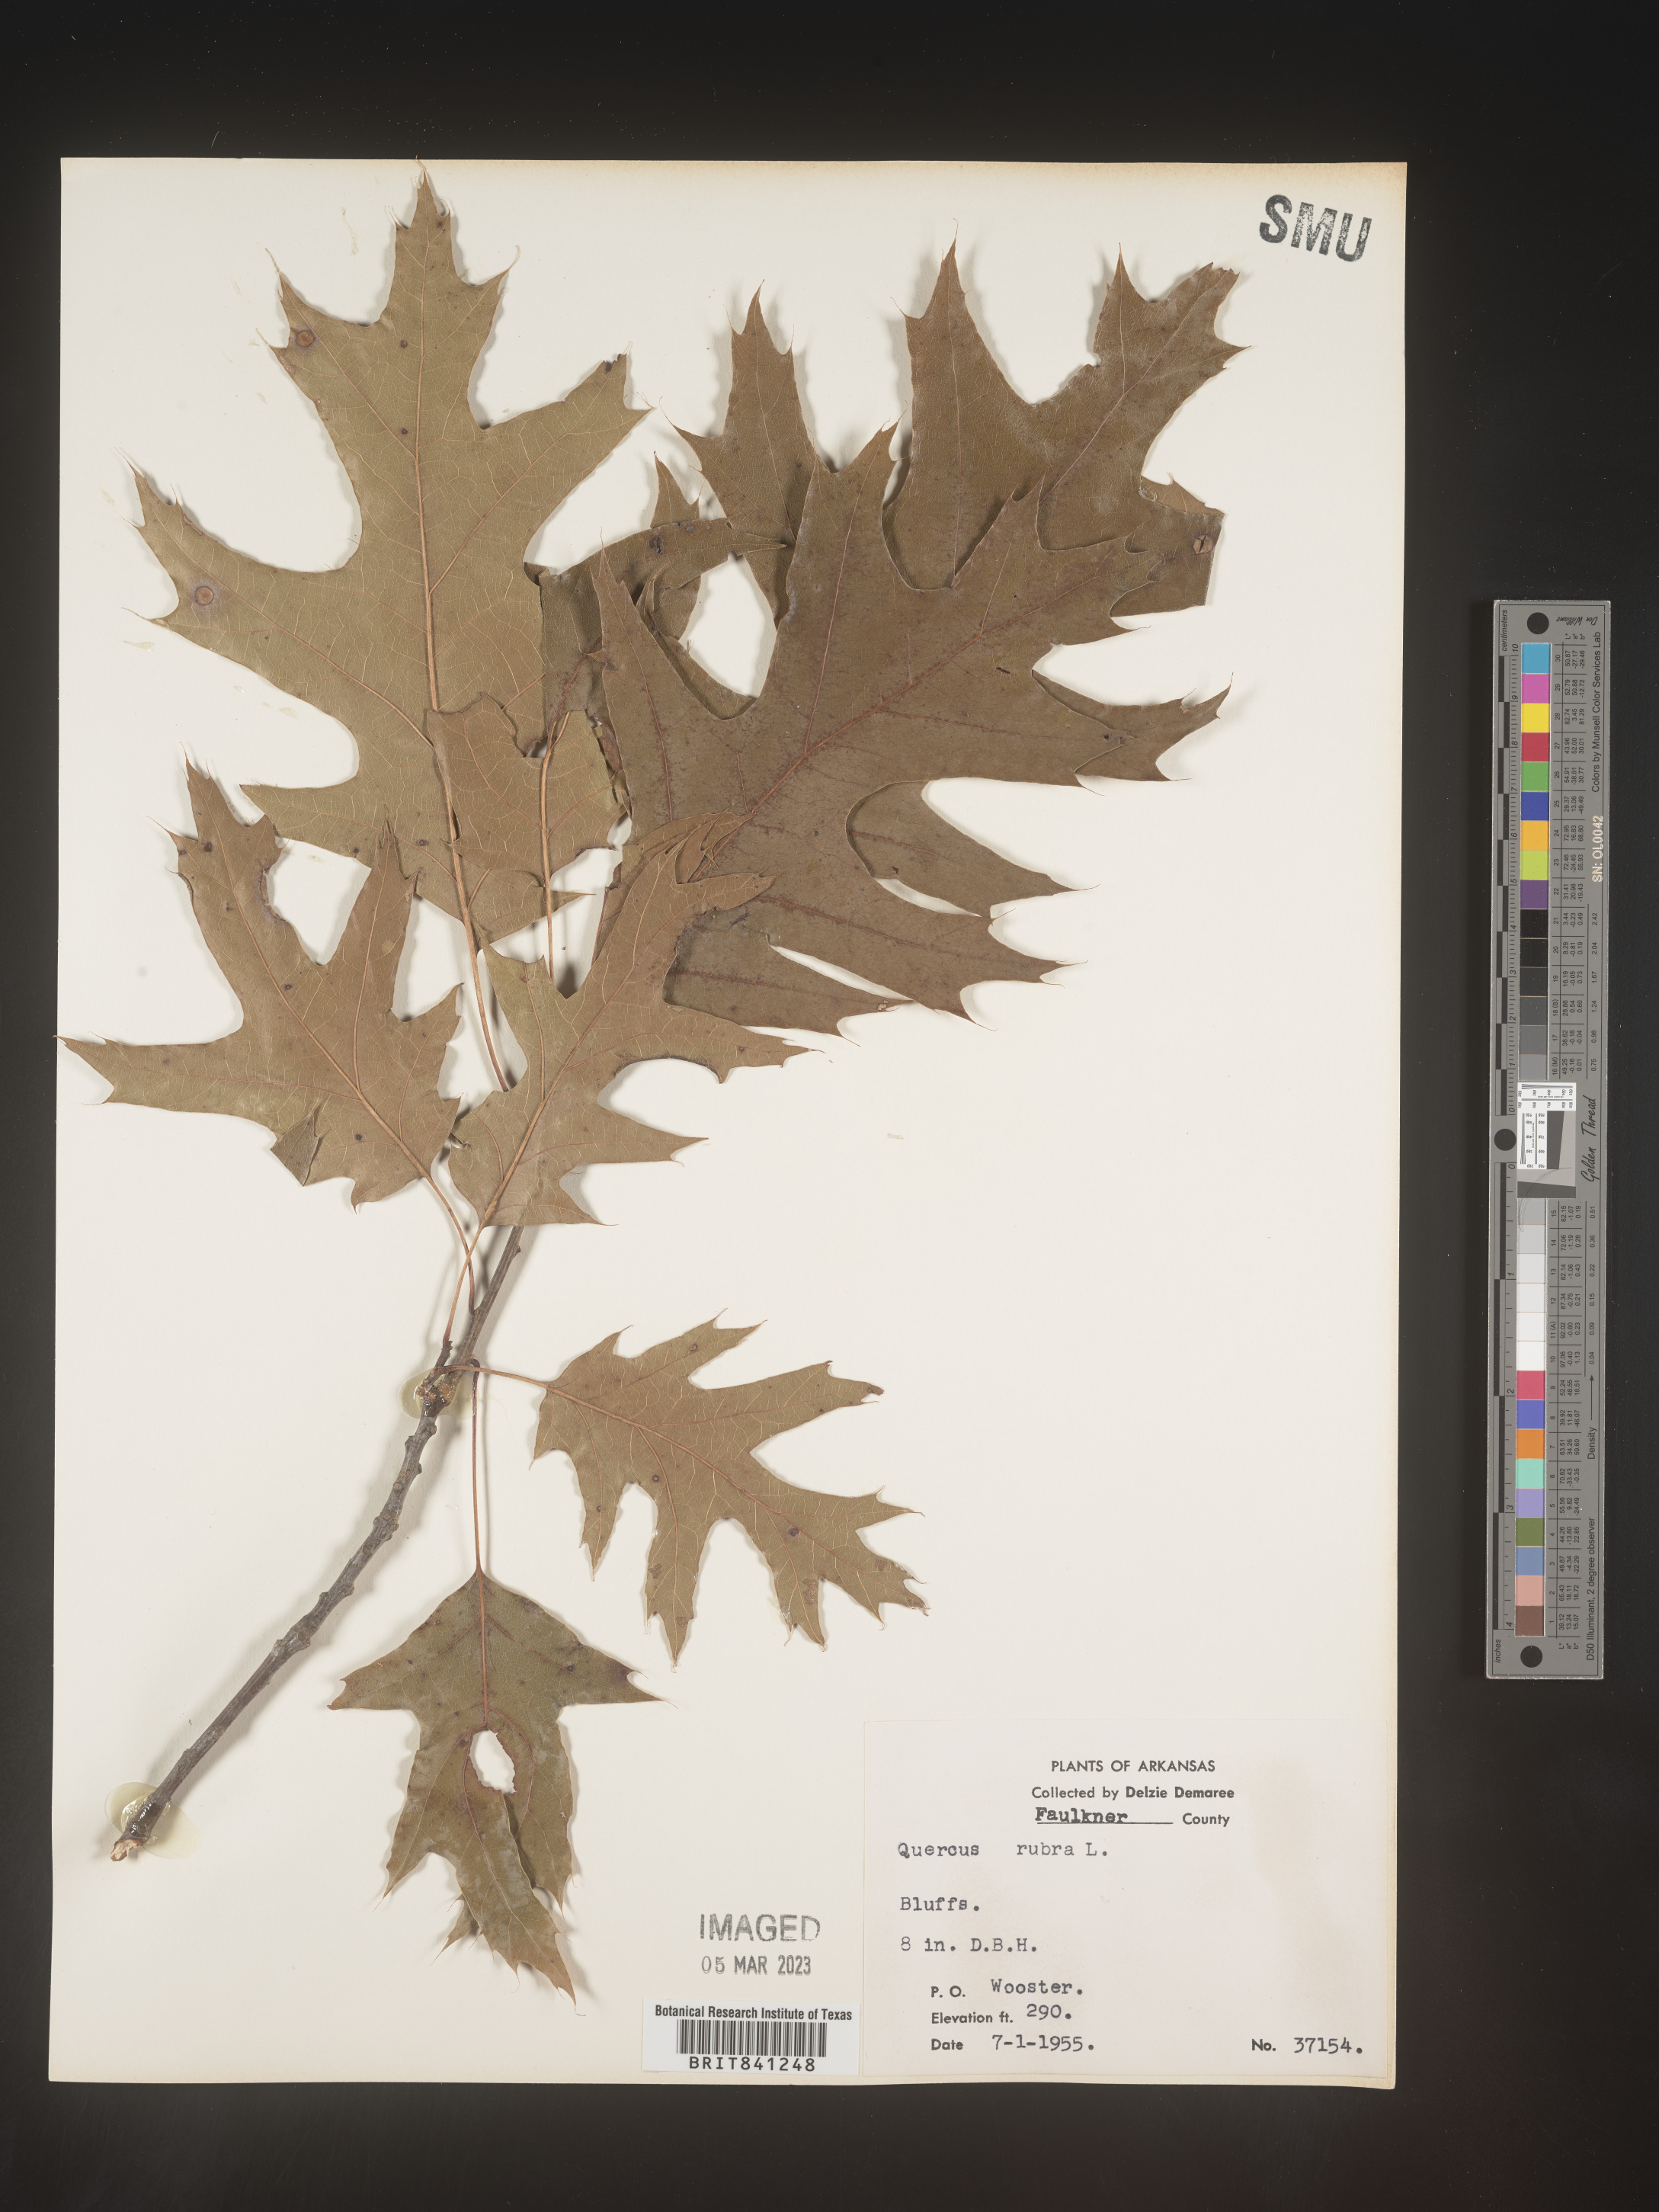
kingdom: Plantae
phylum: Tracheophyta
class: Magnoliopsida
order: Fagales
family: Fagaceae
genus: Quercus
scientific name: Quercus rubra
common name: Red oak
